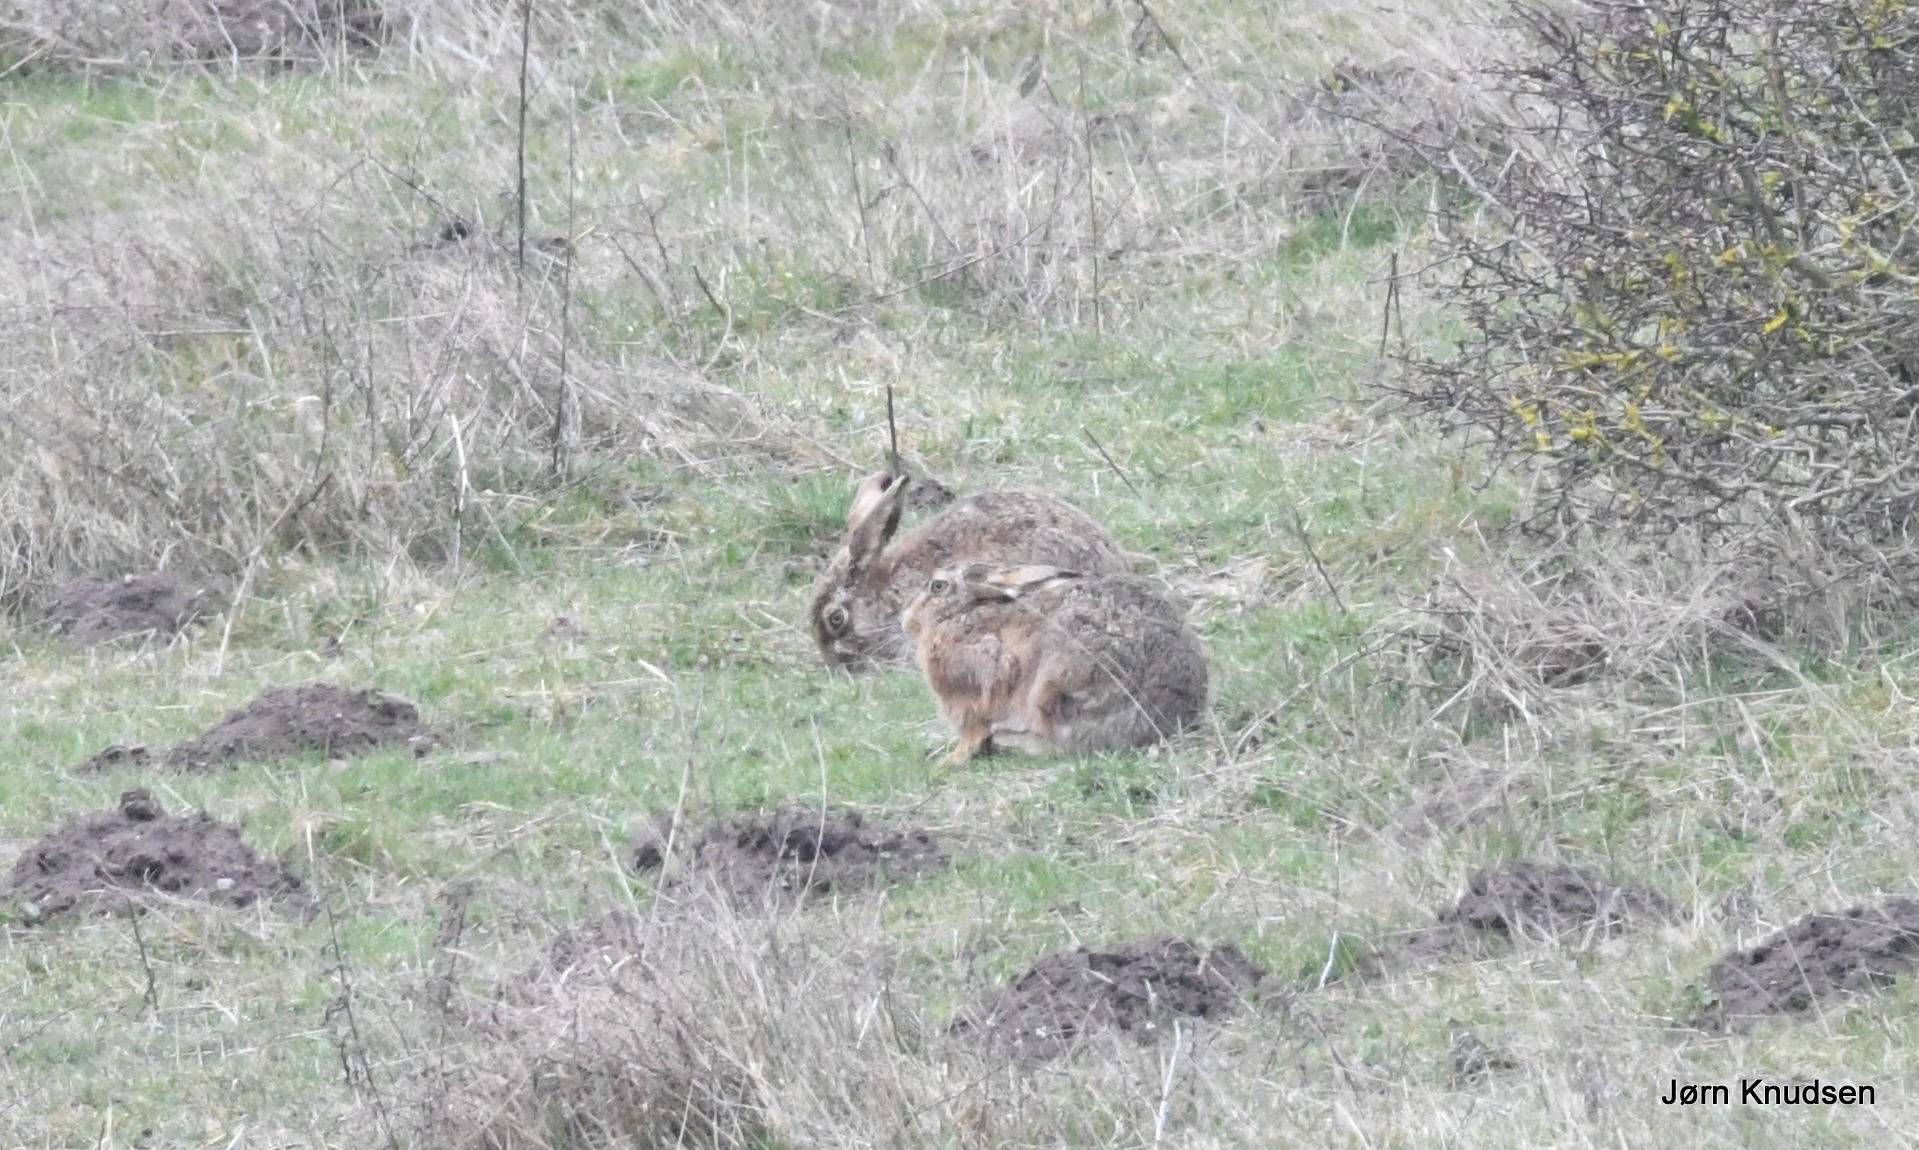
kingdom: Animalia
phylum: Chordata
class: Mammalia
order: Lagomorpha
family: Leporidae
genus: Lepus
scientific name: Lepus europaeus
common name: Hare
